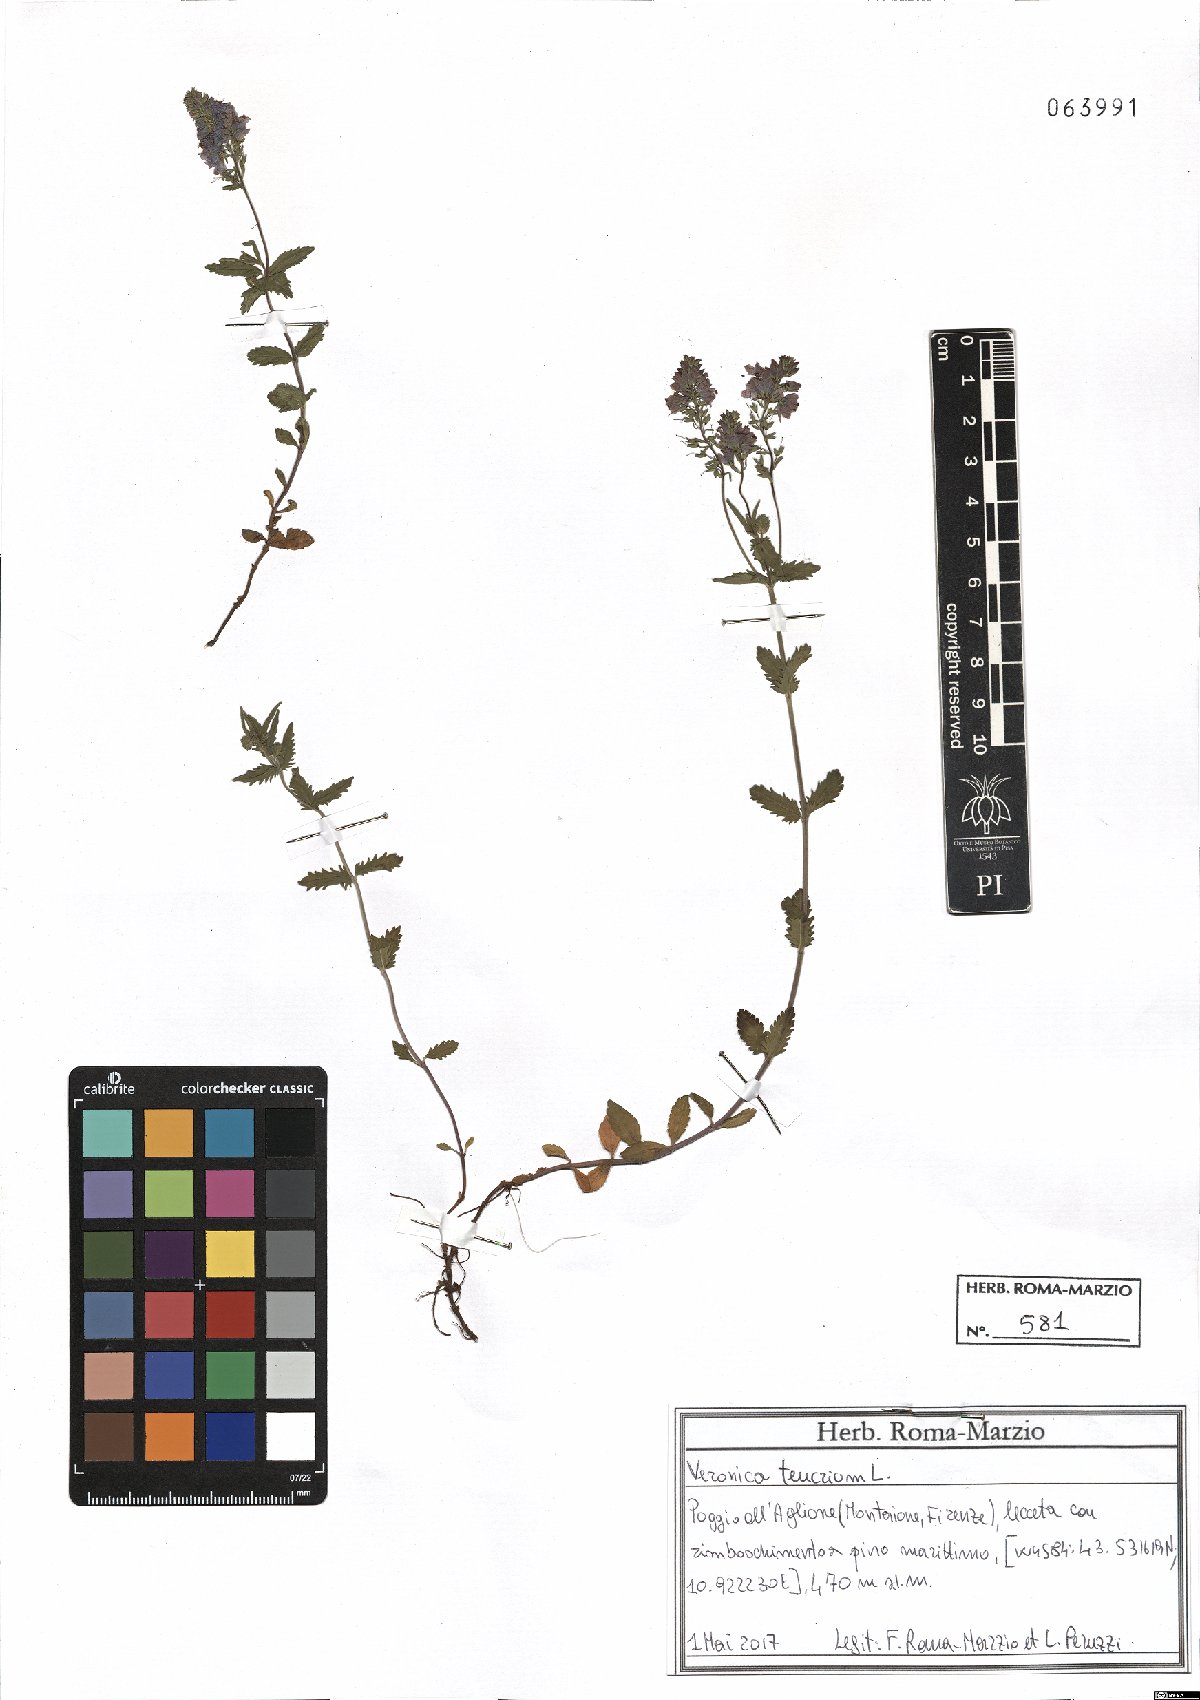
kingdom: Plantae
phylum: Tracheophyta
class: Magnoliopsida
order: Lamiales
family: Plantaginaceae
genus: Veronica
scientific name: Veronica teucrium
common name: Large speedwell
